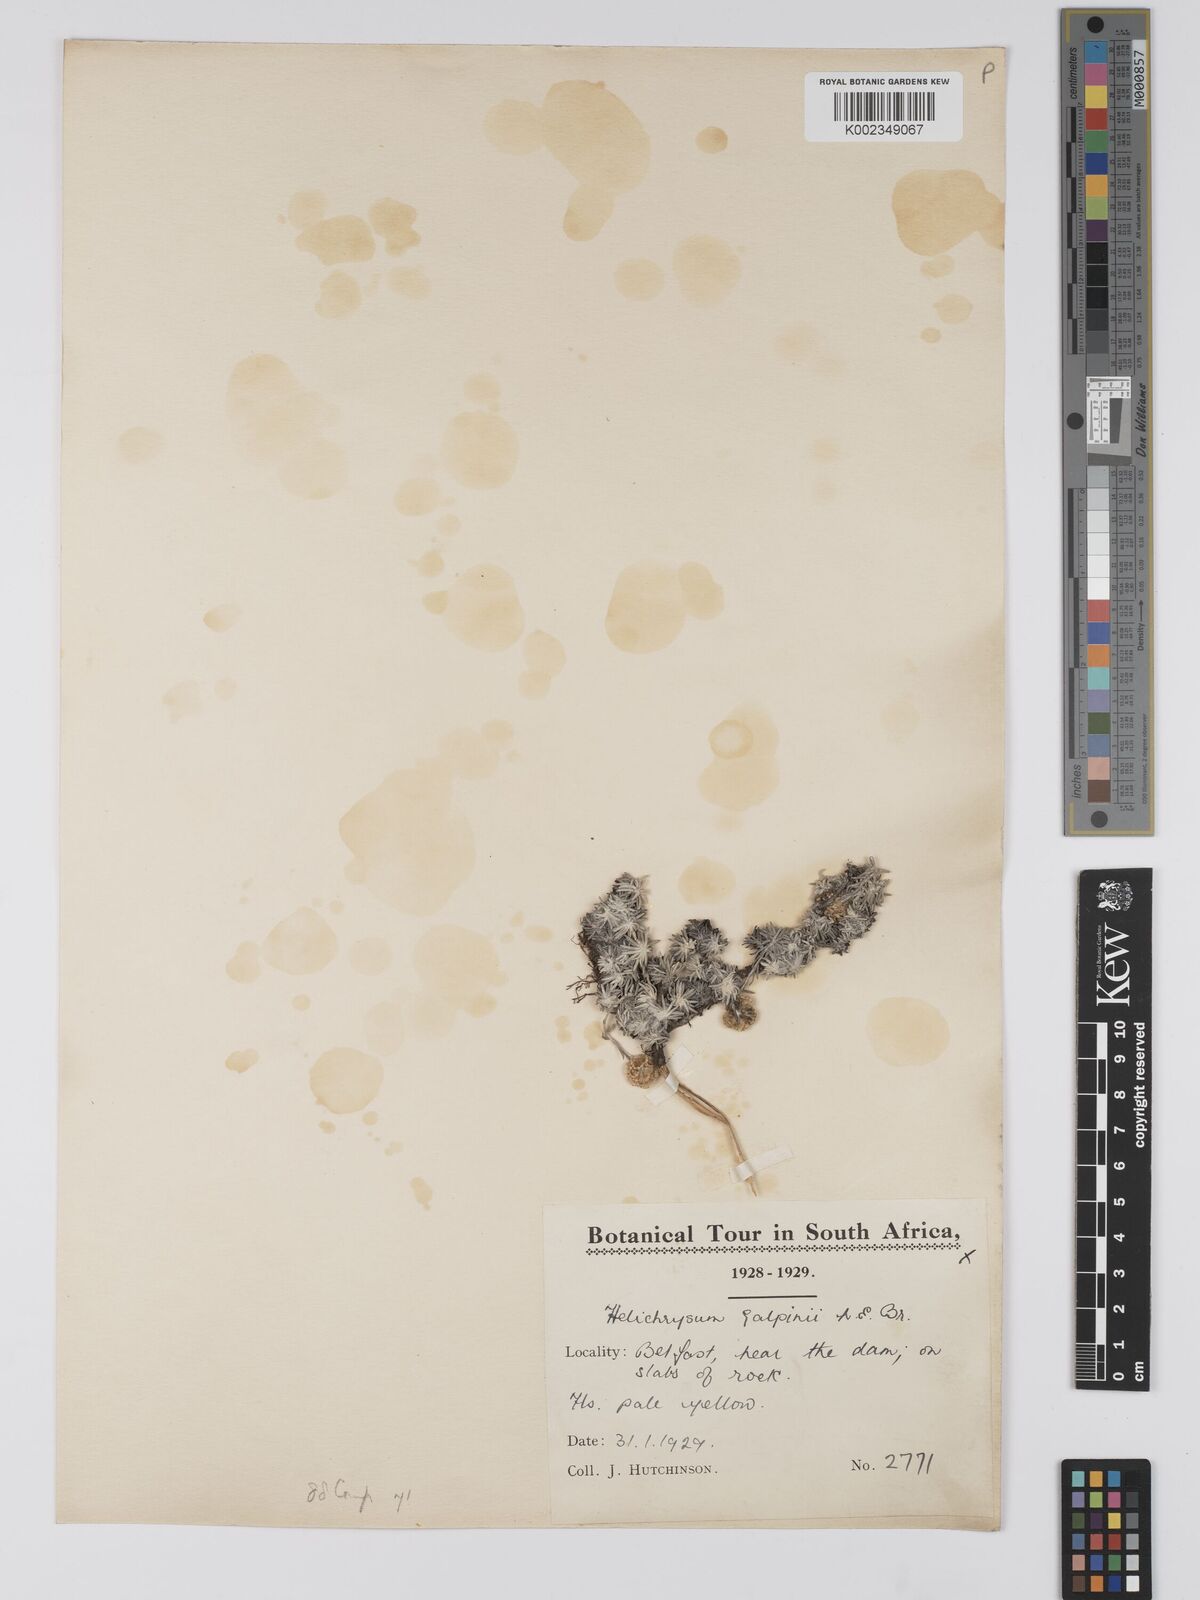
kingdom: Plantae
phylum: Tracheophyta
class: Magnoliopsida
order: Asterales
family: Asteraceae
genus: Helichrysum
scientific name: Helichrysum galpinii
